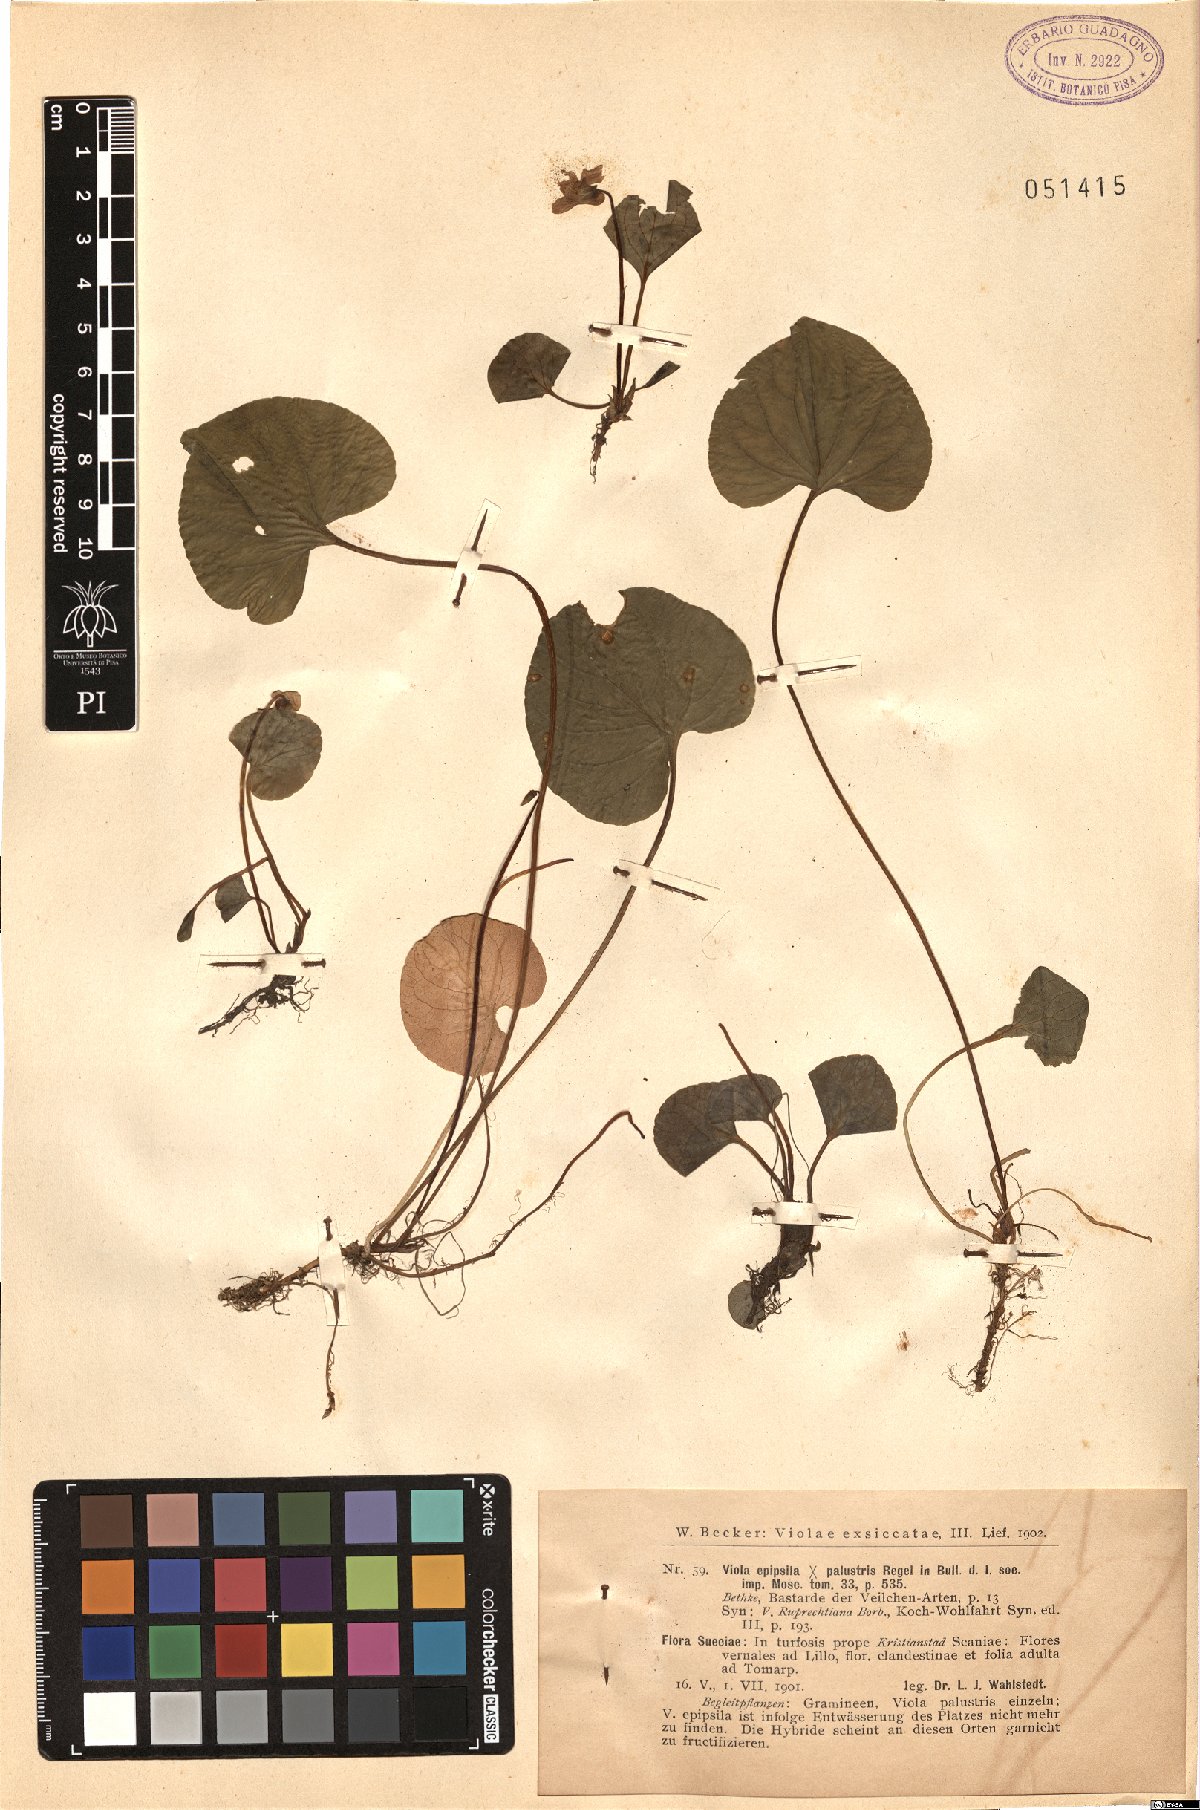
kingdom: Plantae
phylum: Tracheophyta
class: Magnoliopsida
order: Malpighiales
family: Violaceae
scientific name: Violaceae
